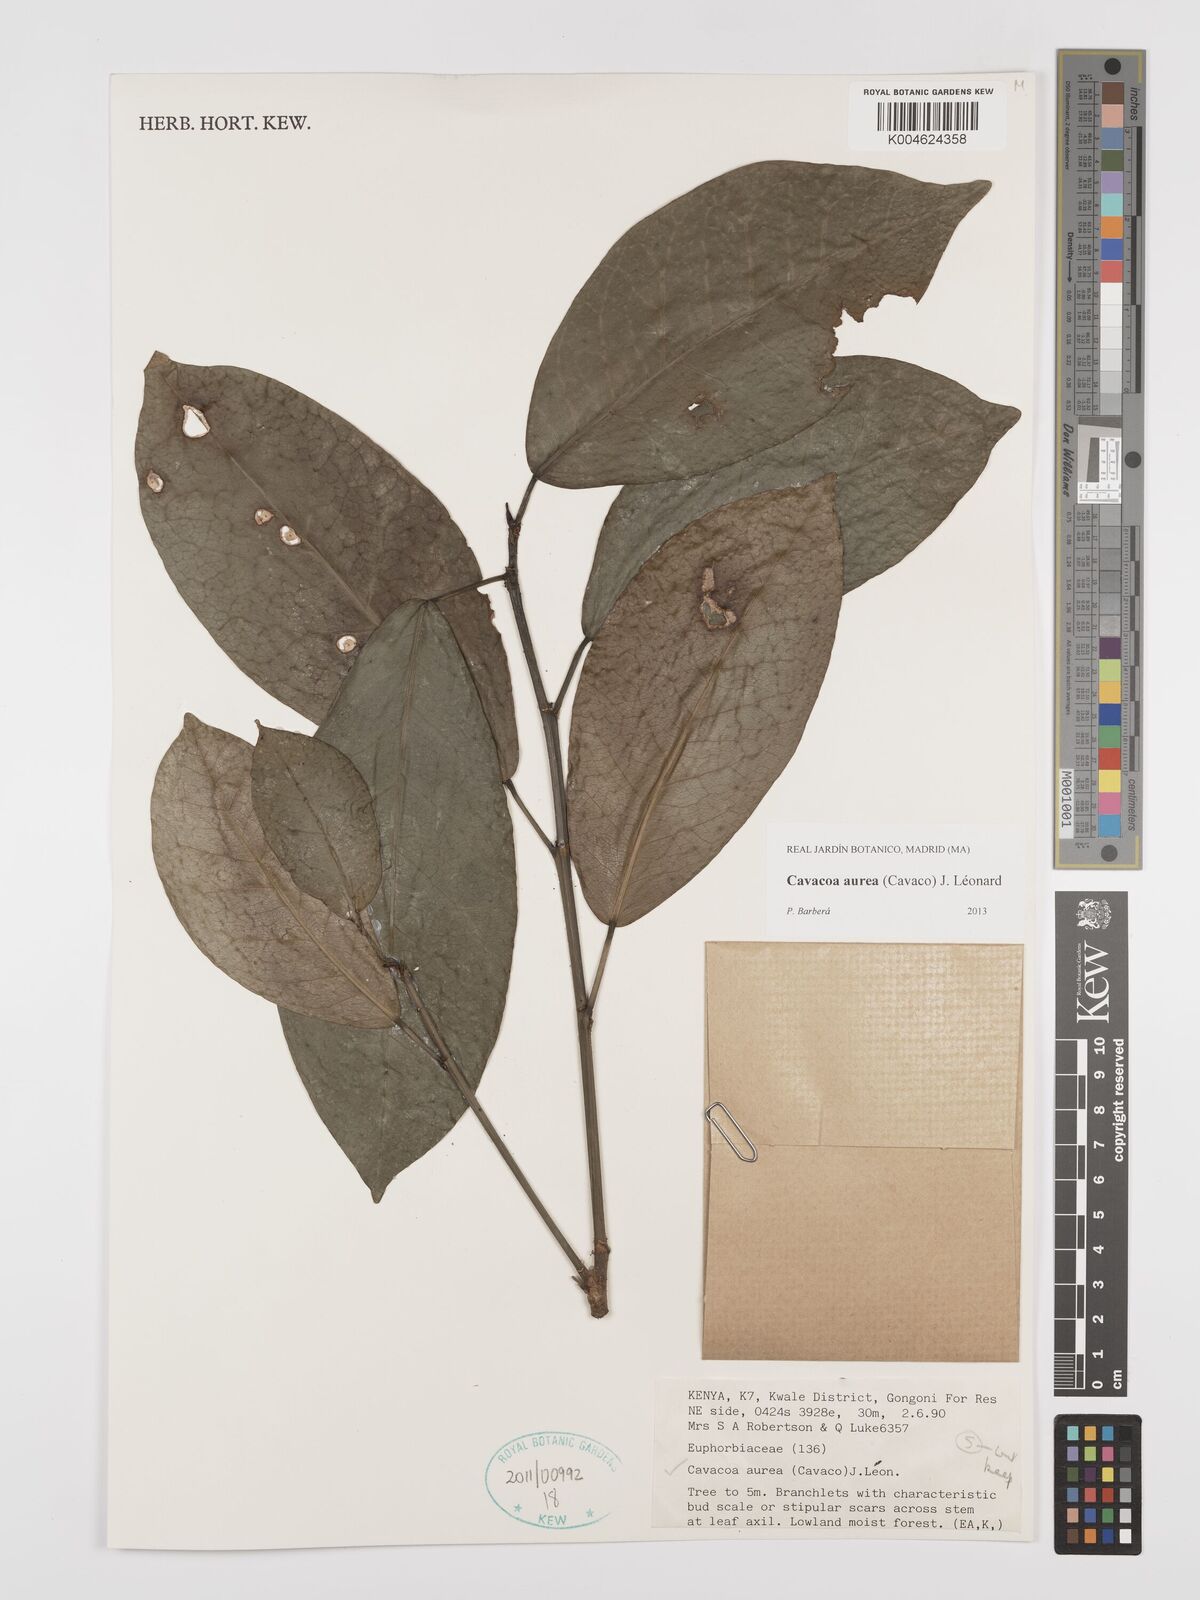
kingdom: Plantae
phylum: Tracheophyta
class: Magnoliopsida
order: Malpighiales
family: Euphorbiaceae
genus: Cavacoa
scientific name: Cavacoa aurea
